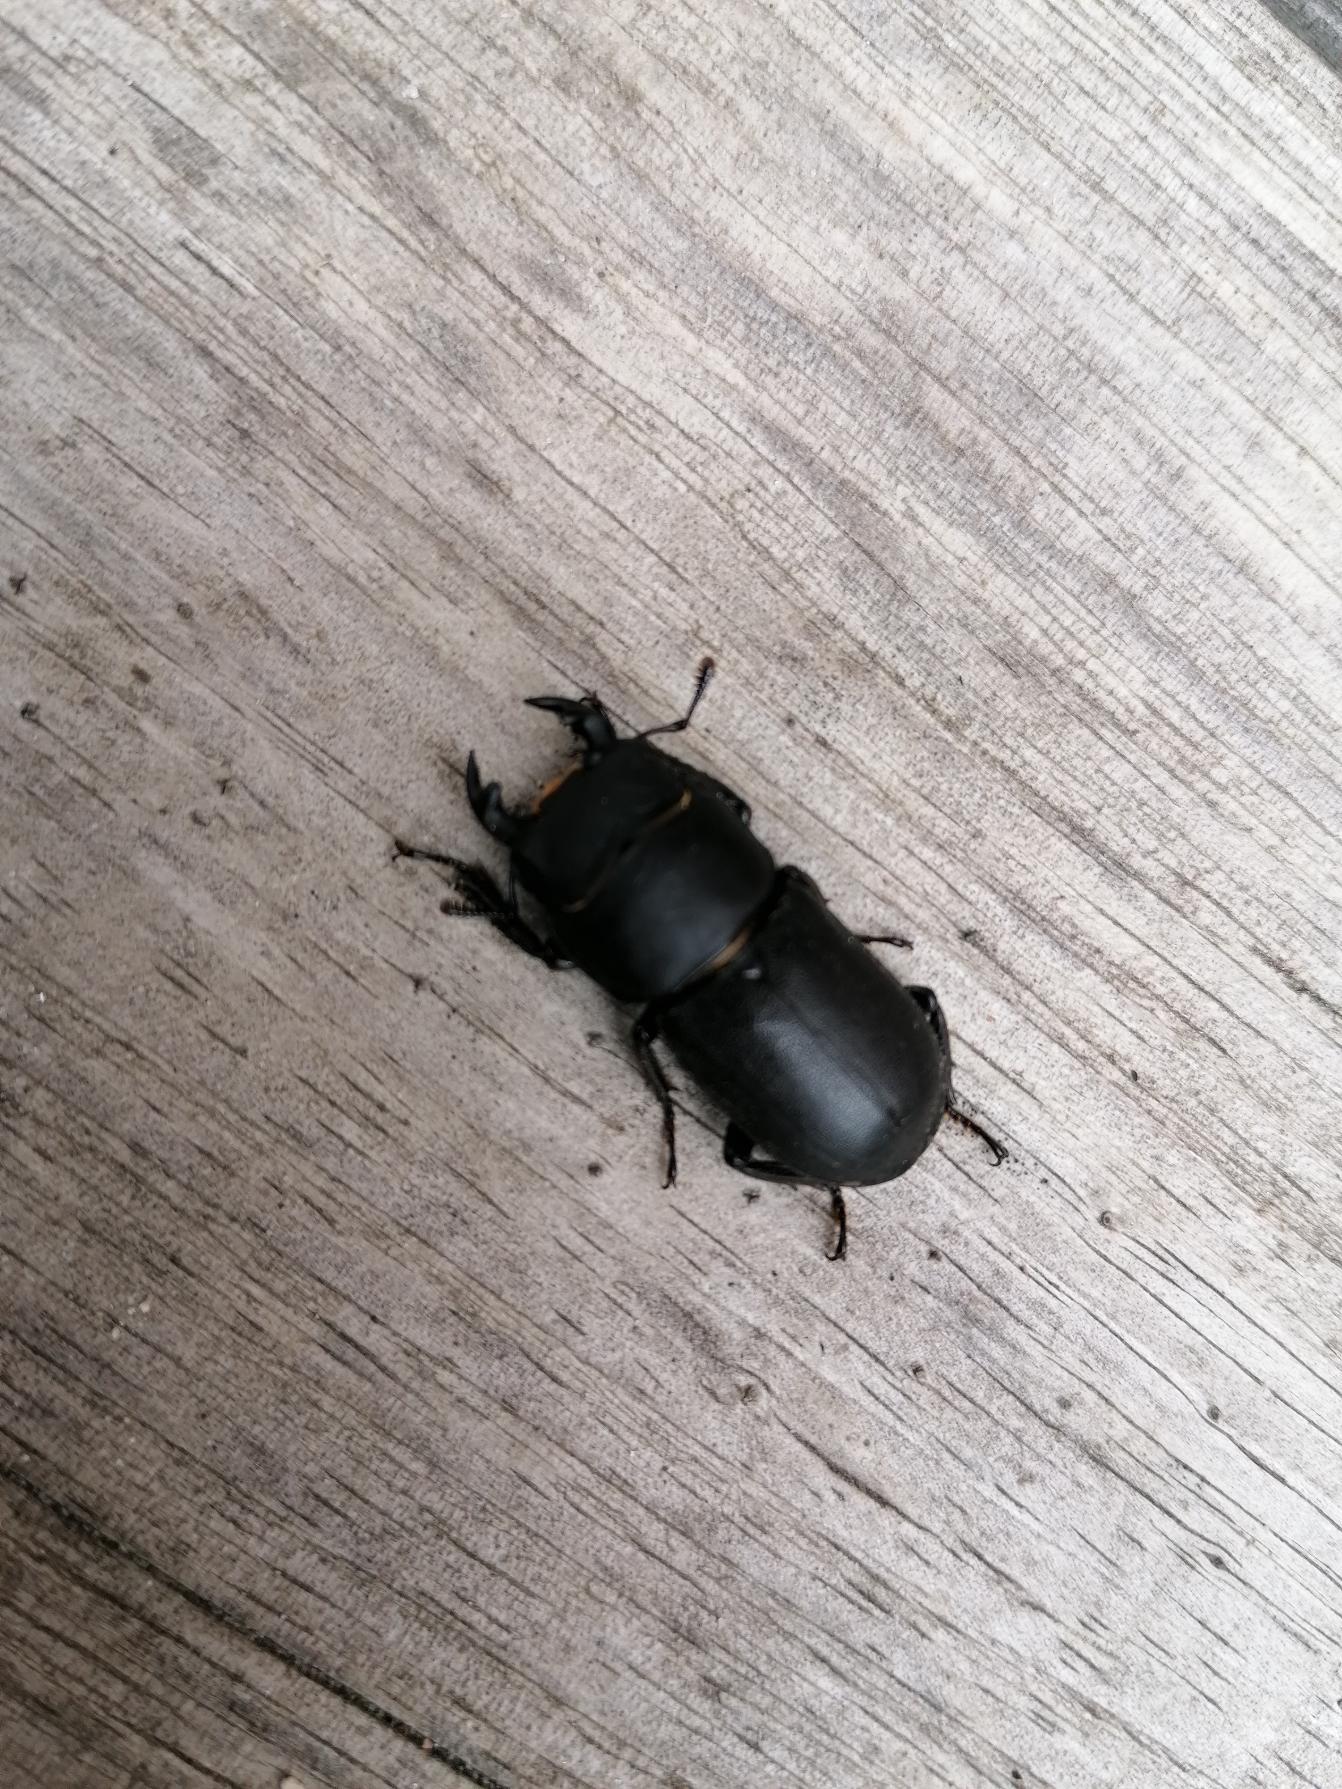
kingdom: Animalia
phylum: Arthropoda
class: Insecta
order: Coleoptera
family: Lucanidae
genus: Dorcus
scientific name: Dorcus parallelipipedus
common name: Bøghjort
